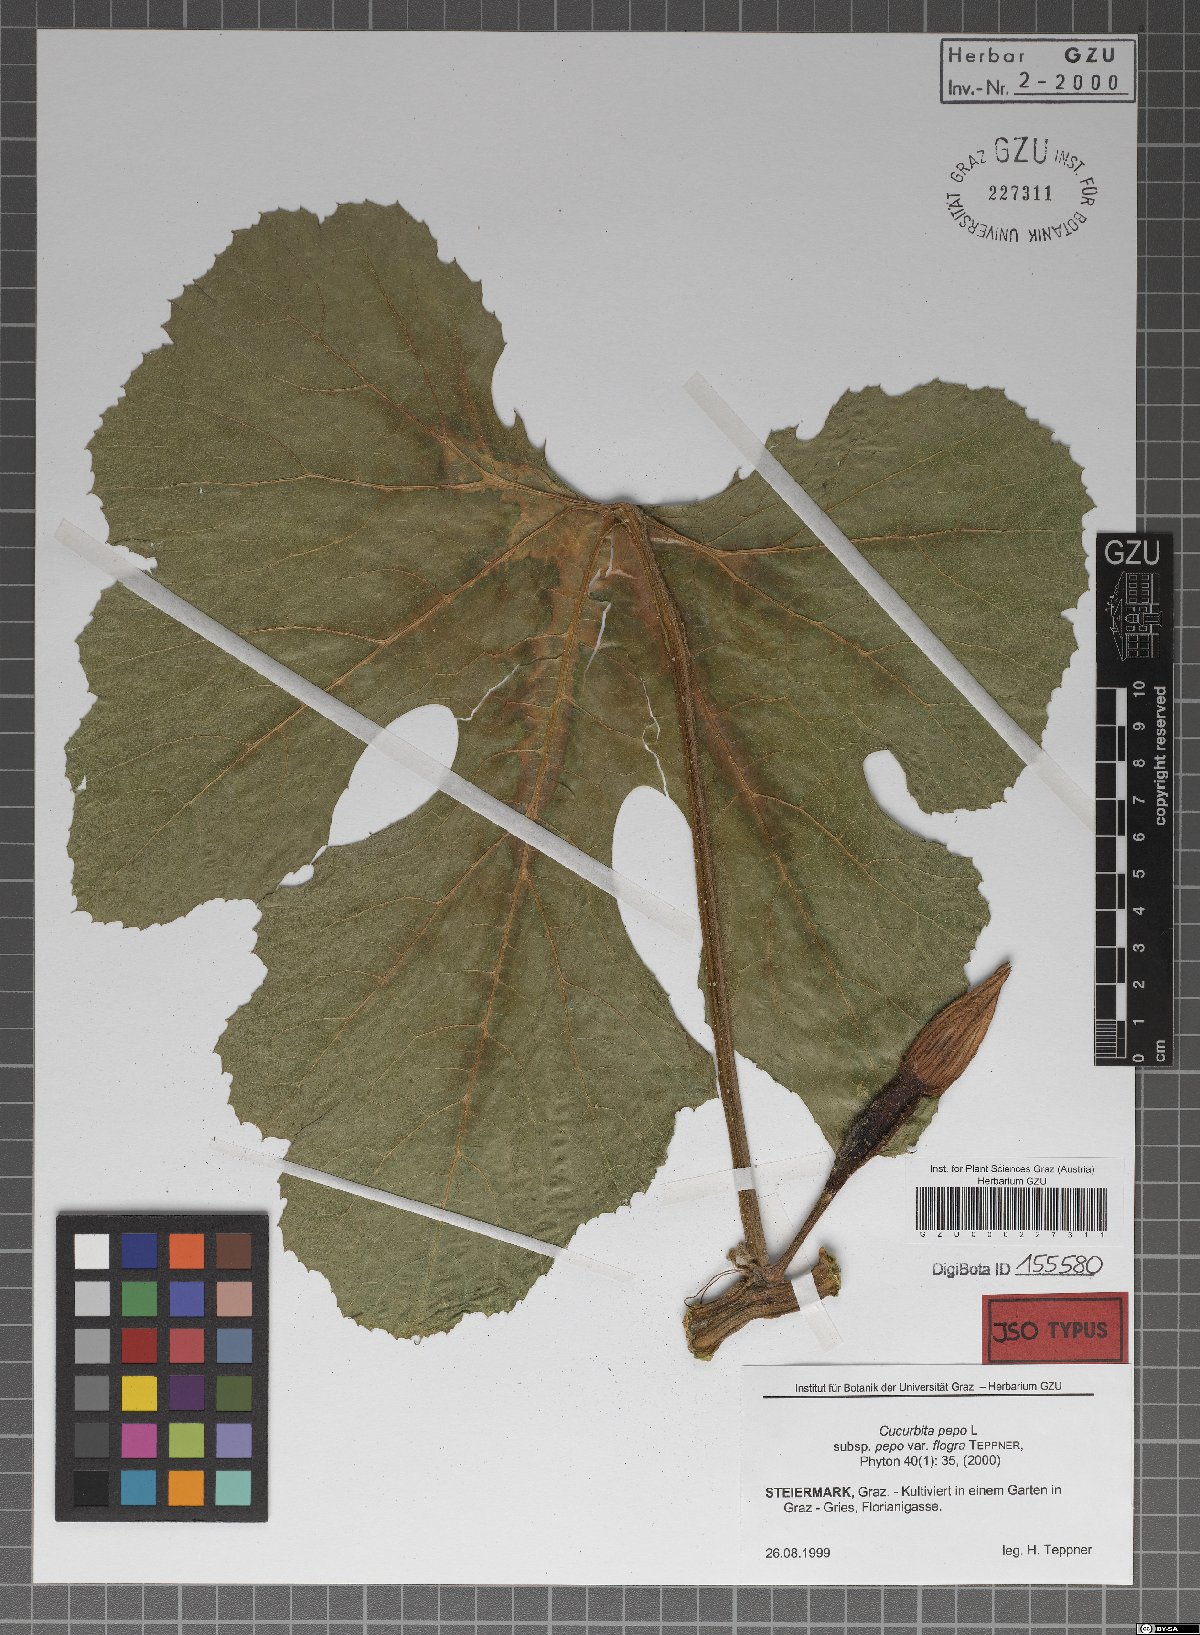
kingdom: Plantae
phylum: Tracheophyta
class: Magnoliopsida
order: Cucurbitales
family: Cucurbitaceae
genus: Cucurbita
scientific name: Cucurbita pepo
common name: Marrow
